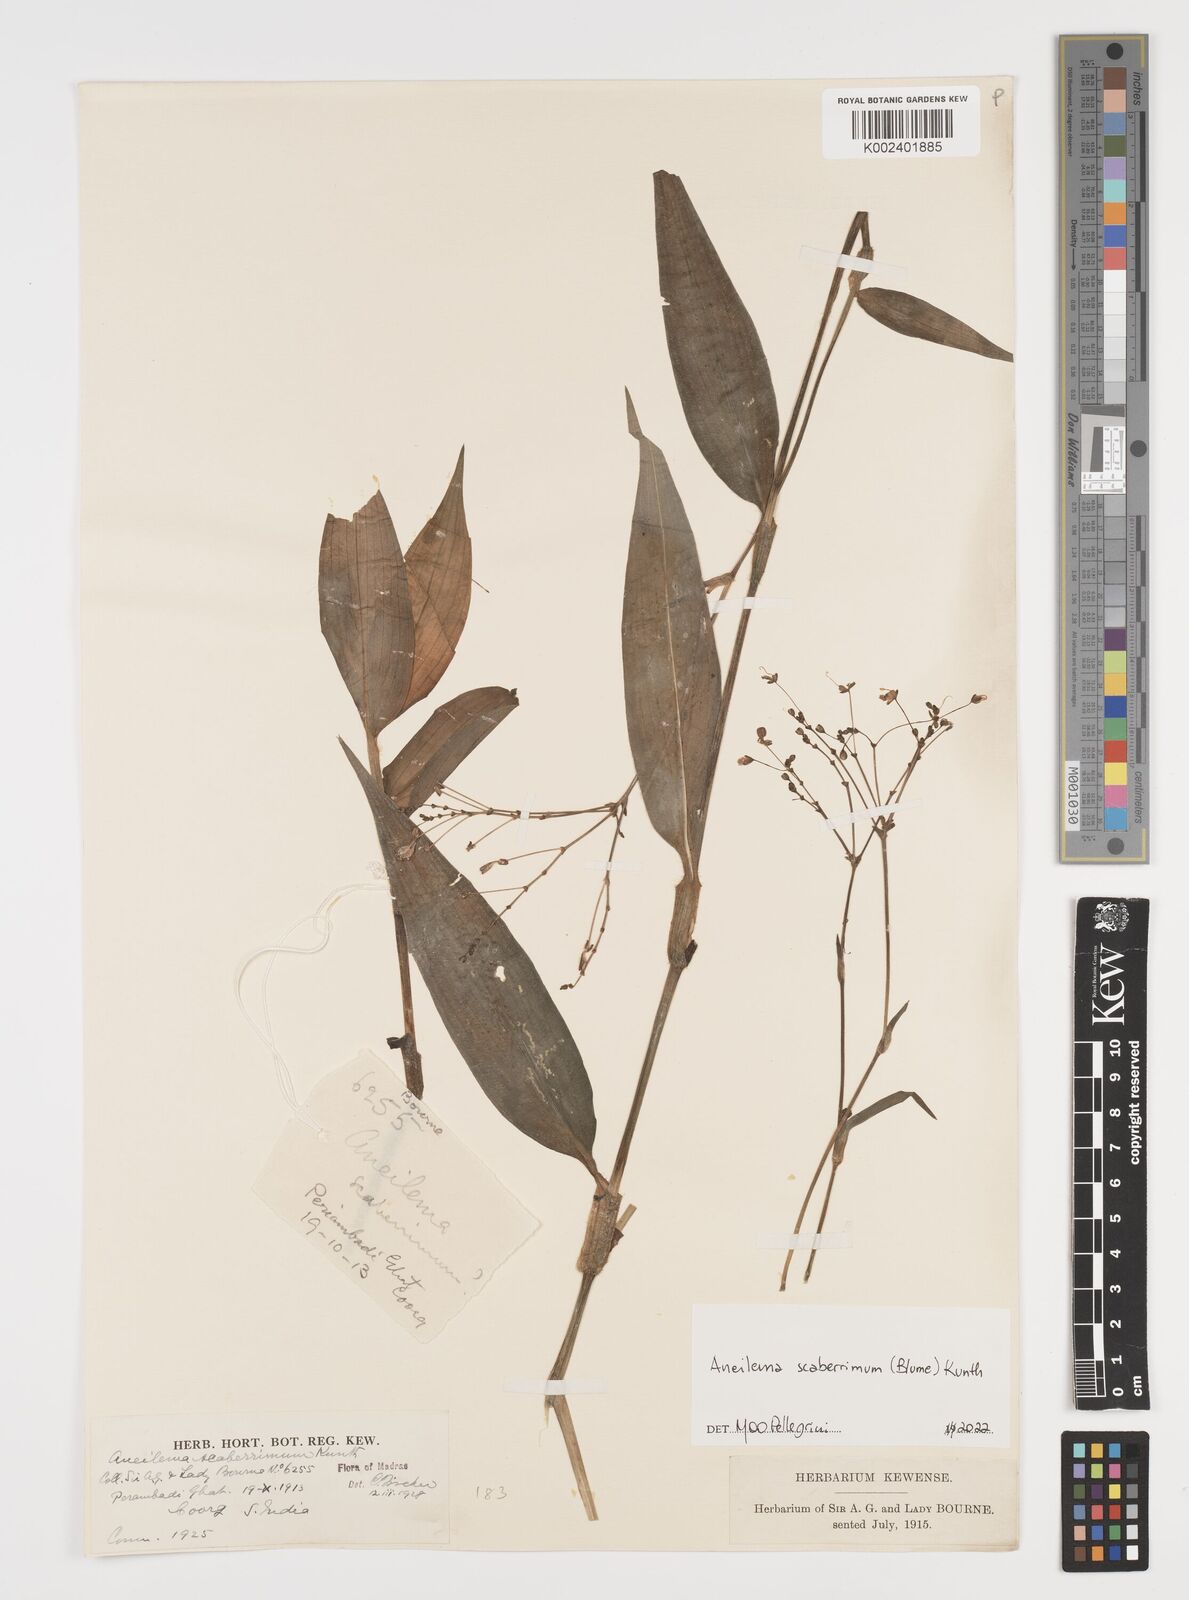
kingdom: Plantae
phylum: Tracheophyta
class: Liliopsida
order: Commelinales
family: Commelinaceae
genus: Rhopalephora
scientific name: Rhopalephora scaberrima
